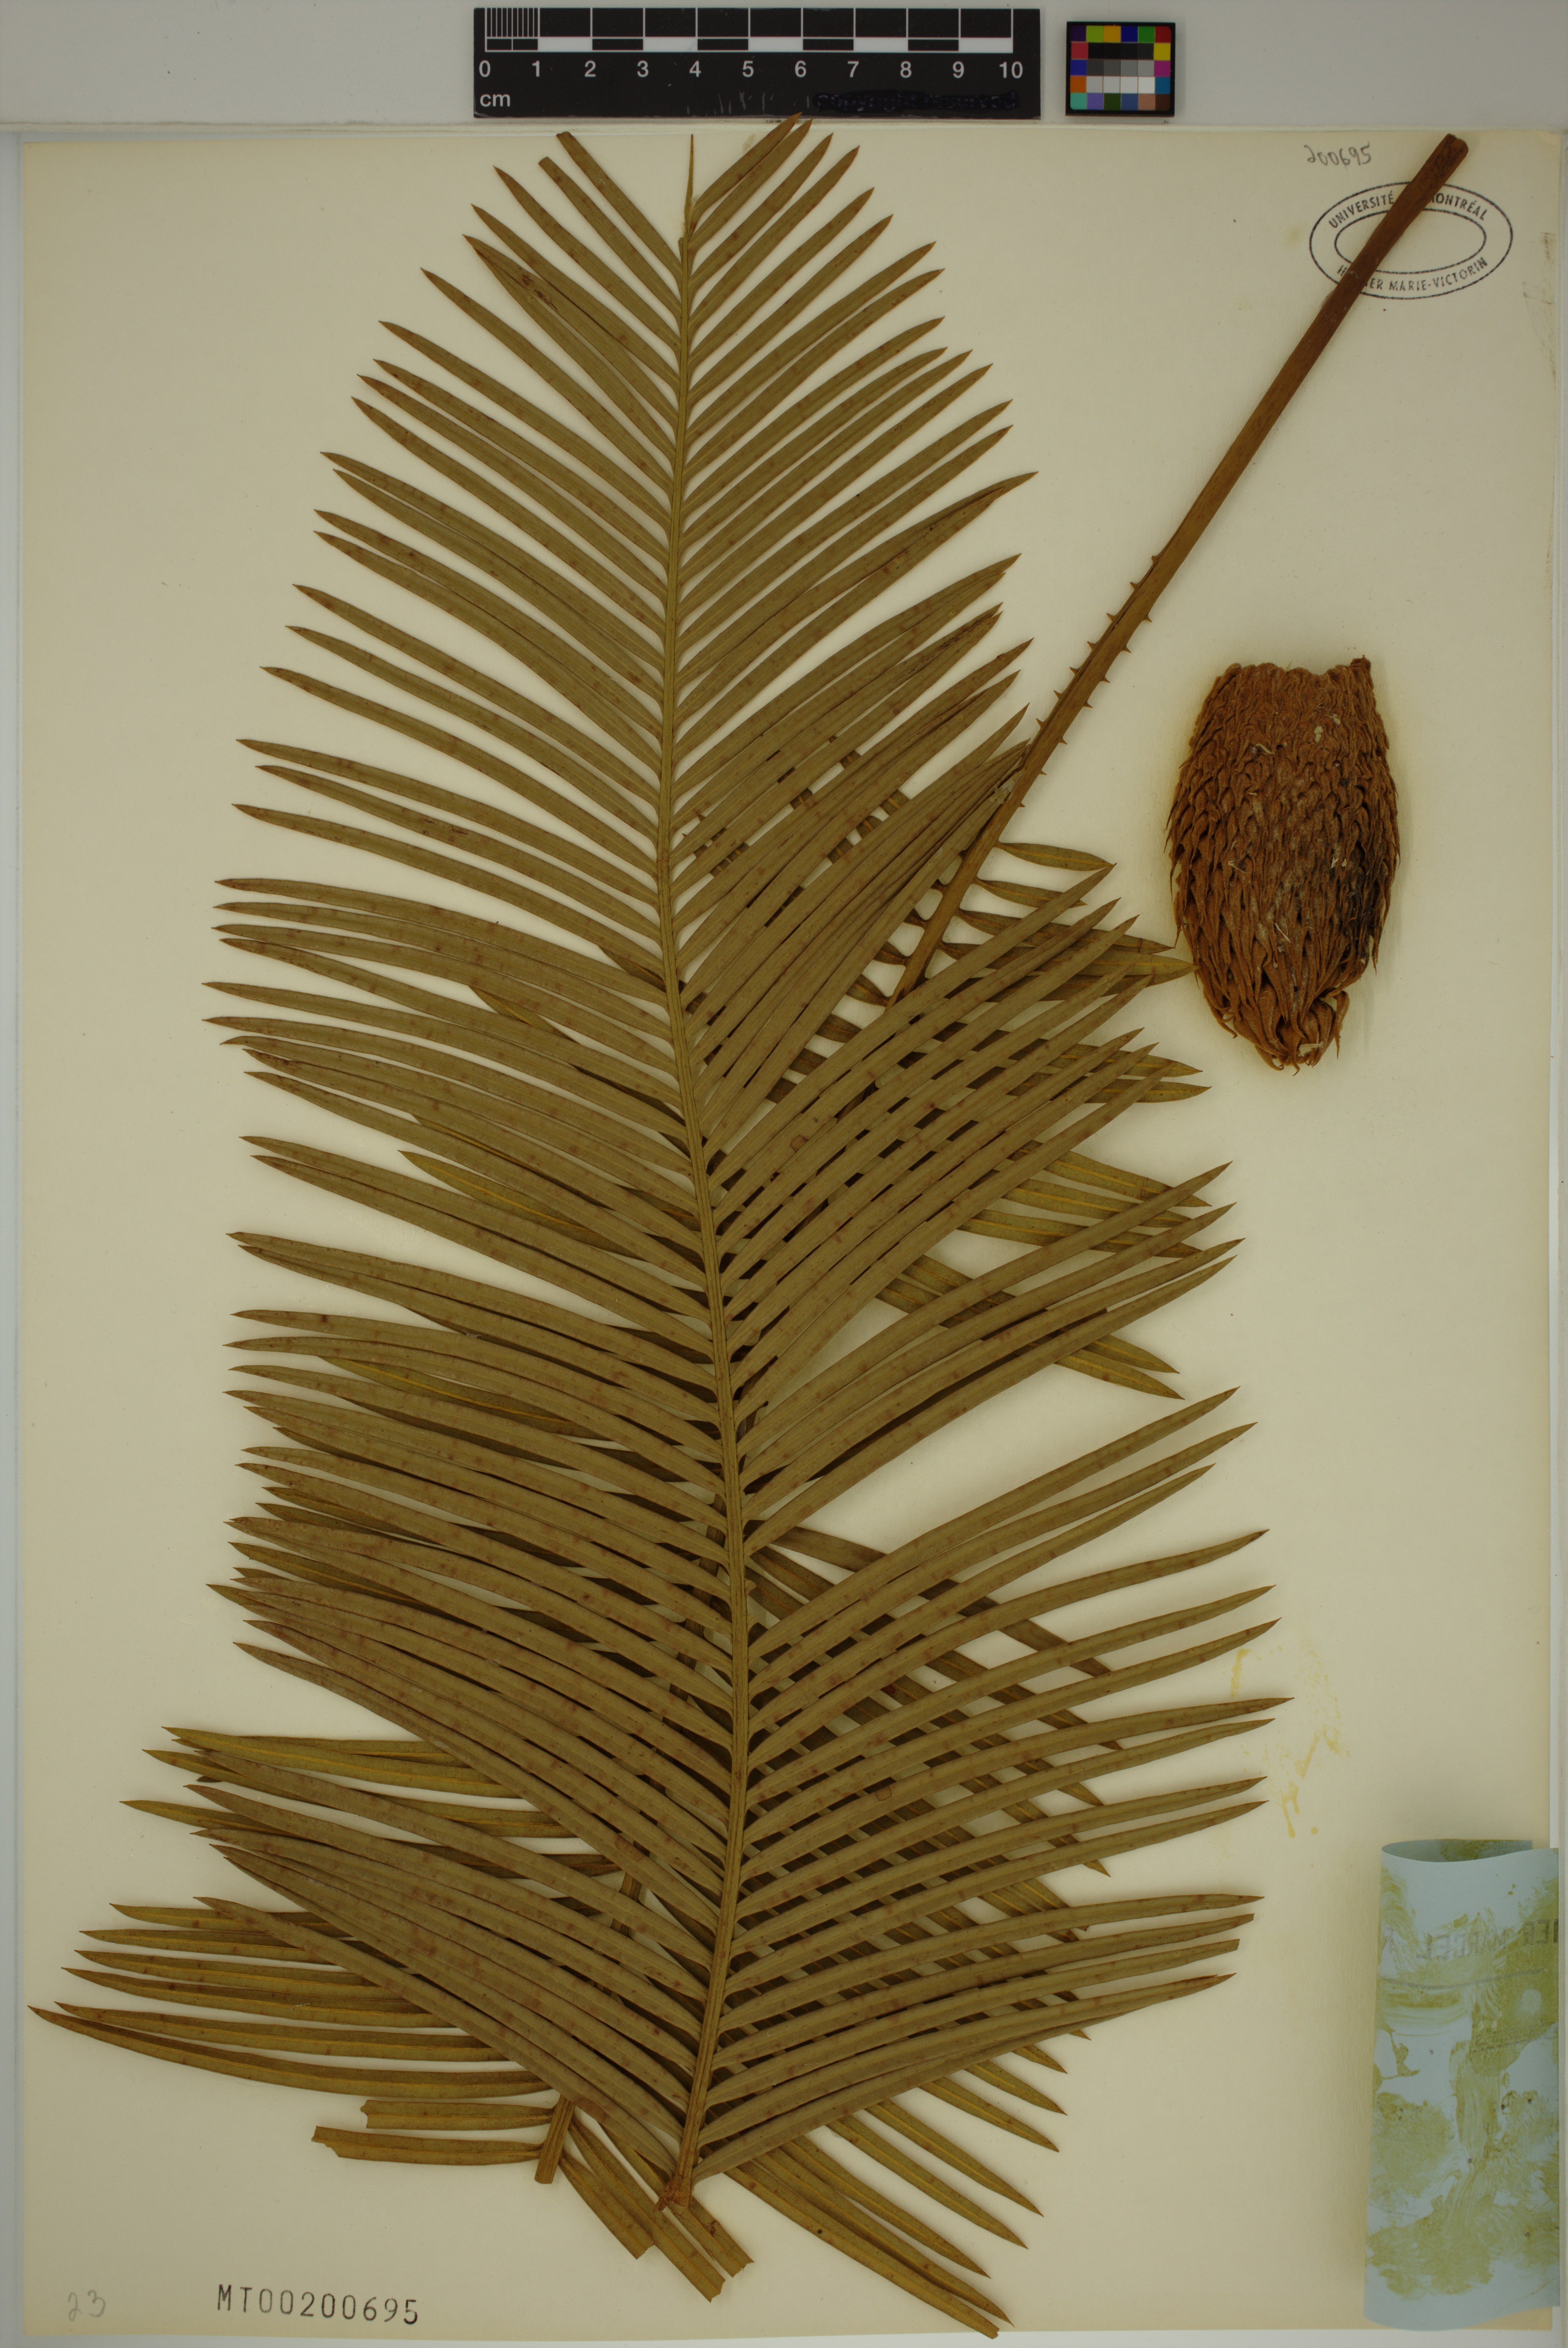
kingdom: Plantae
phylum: Tracheophyta
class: Cycadopsida
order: Cycadales
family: Cycadaceae
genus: Cycas
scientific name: Cycas siamensis
